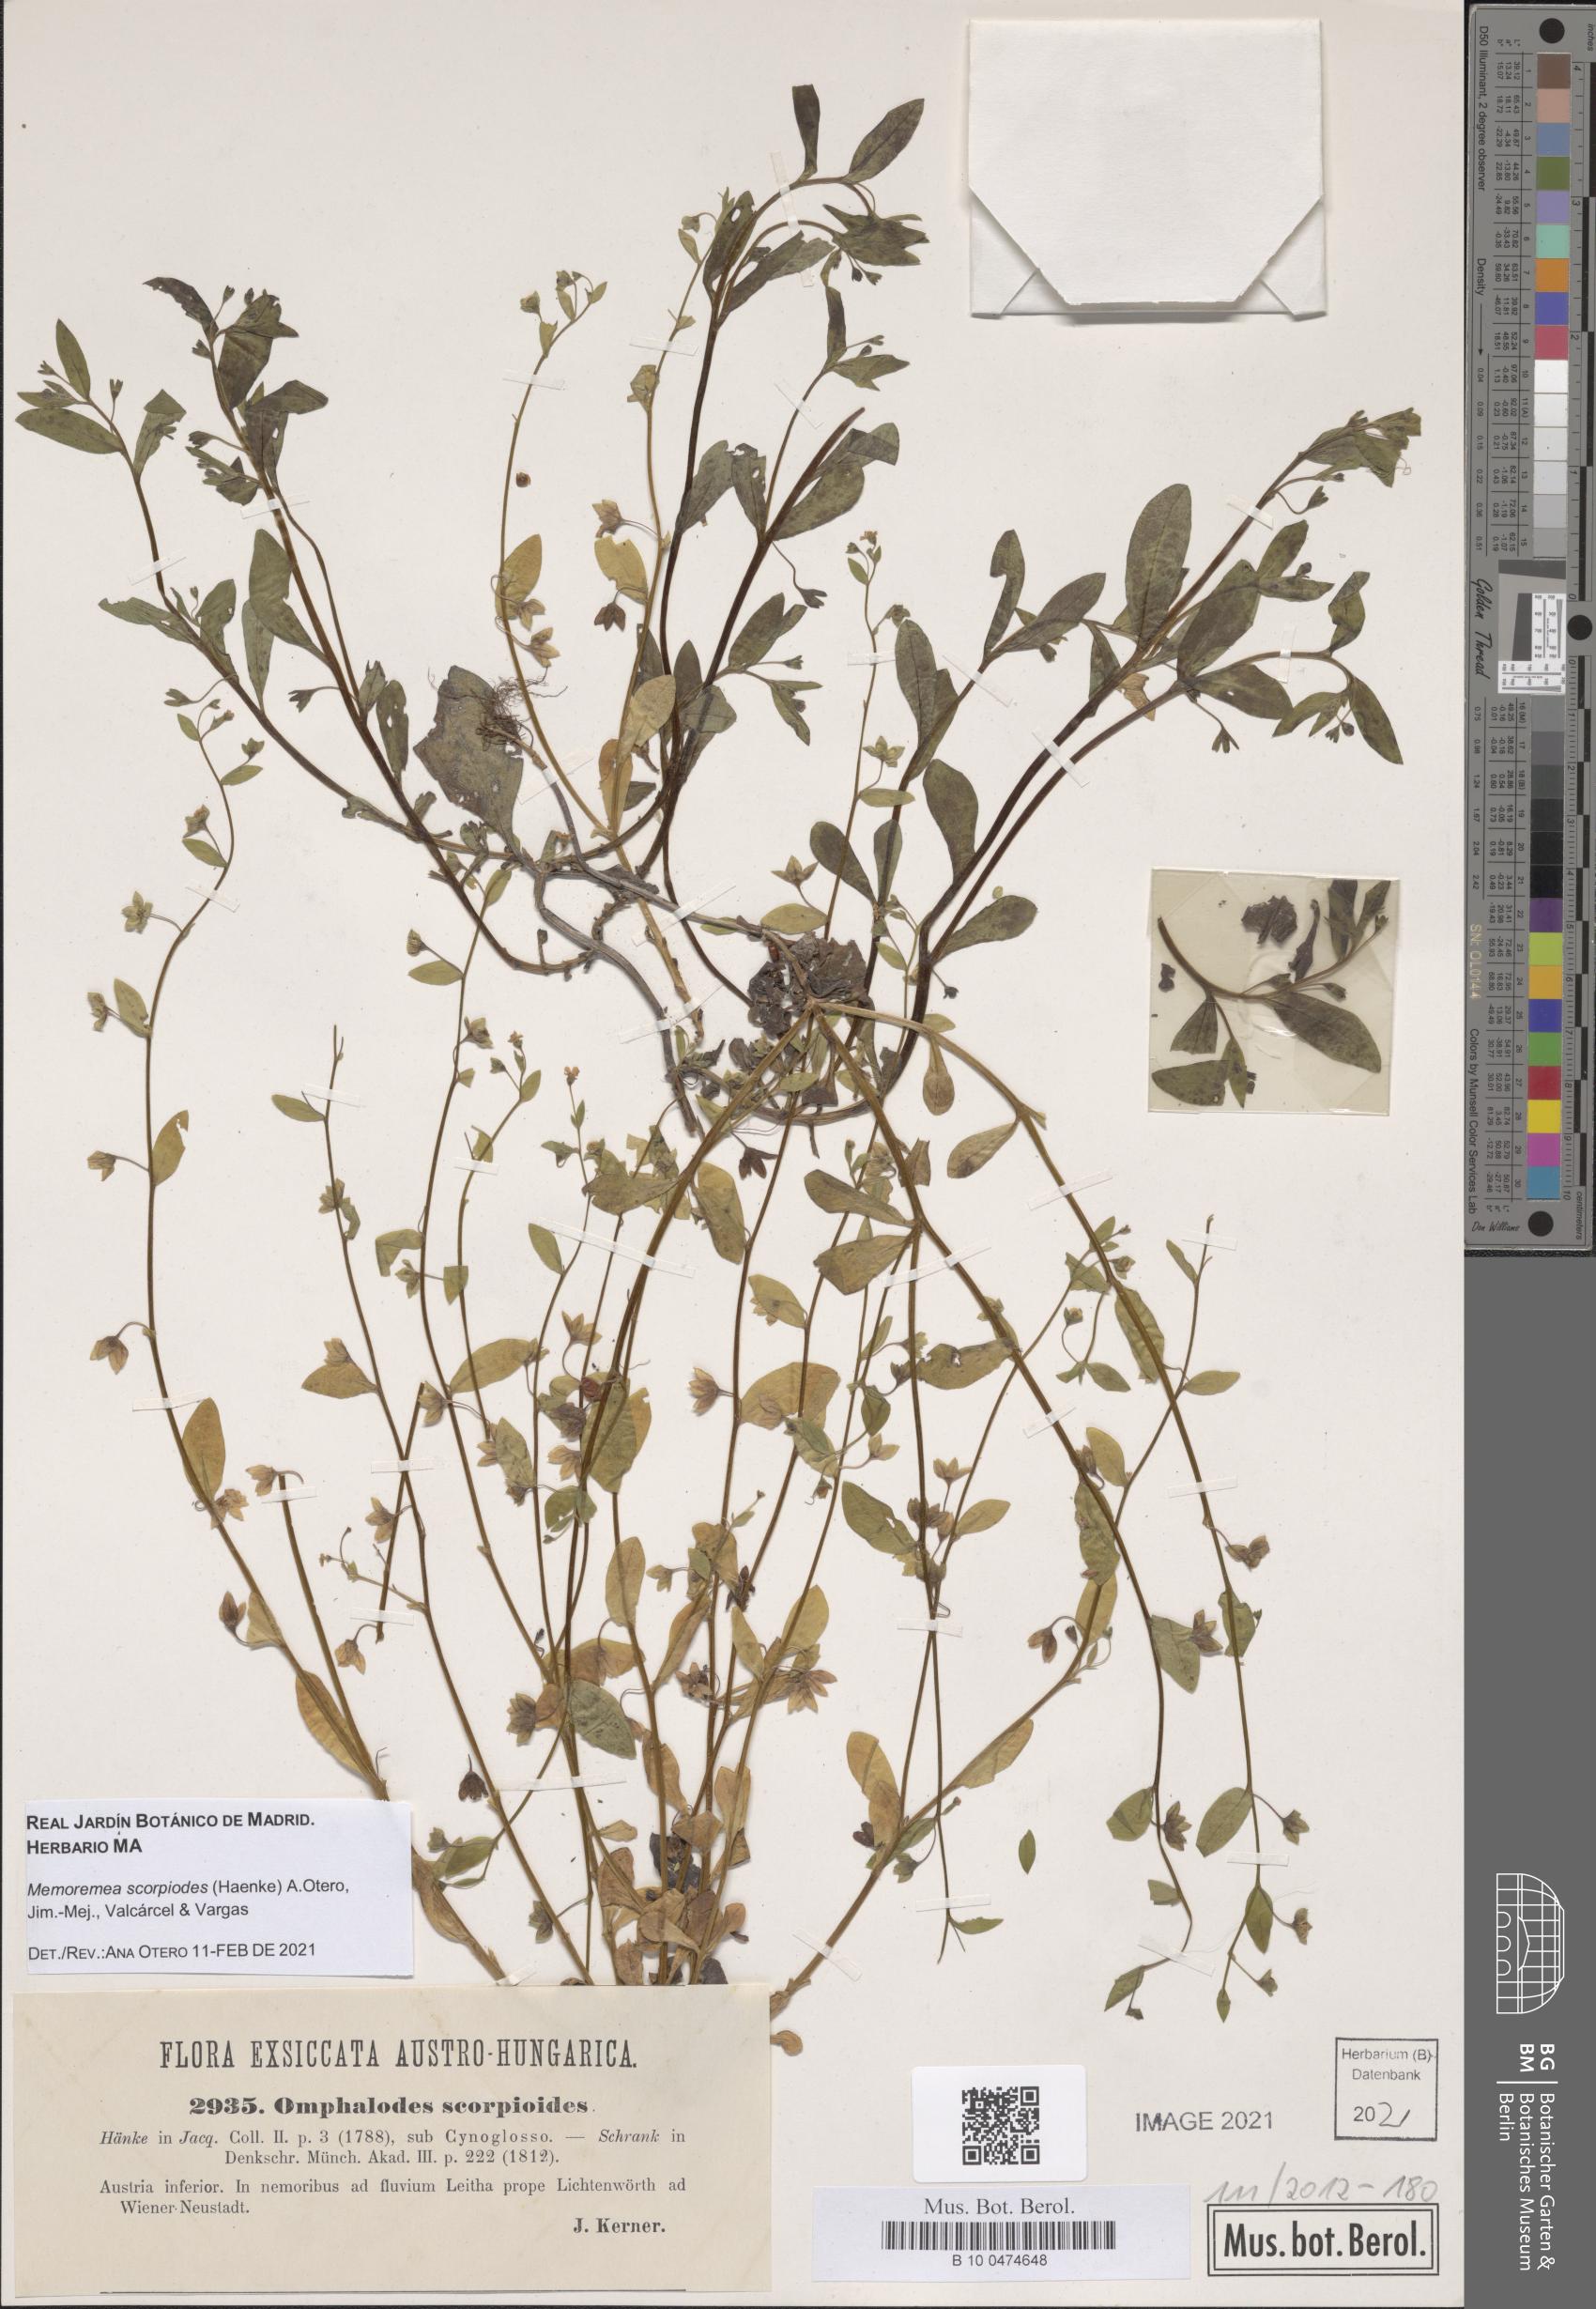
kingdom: Plantae
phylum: Tracheophyta
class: Magnoliopsida
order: Boraginales
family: Boraginaceae
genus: Memoremea
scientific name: Memoremea scorpioides
